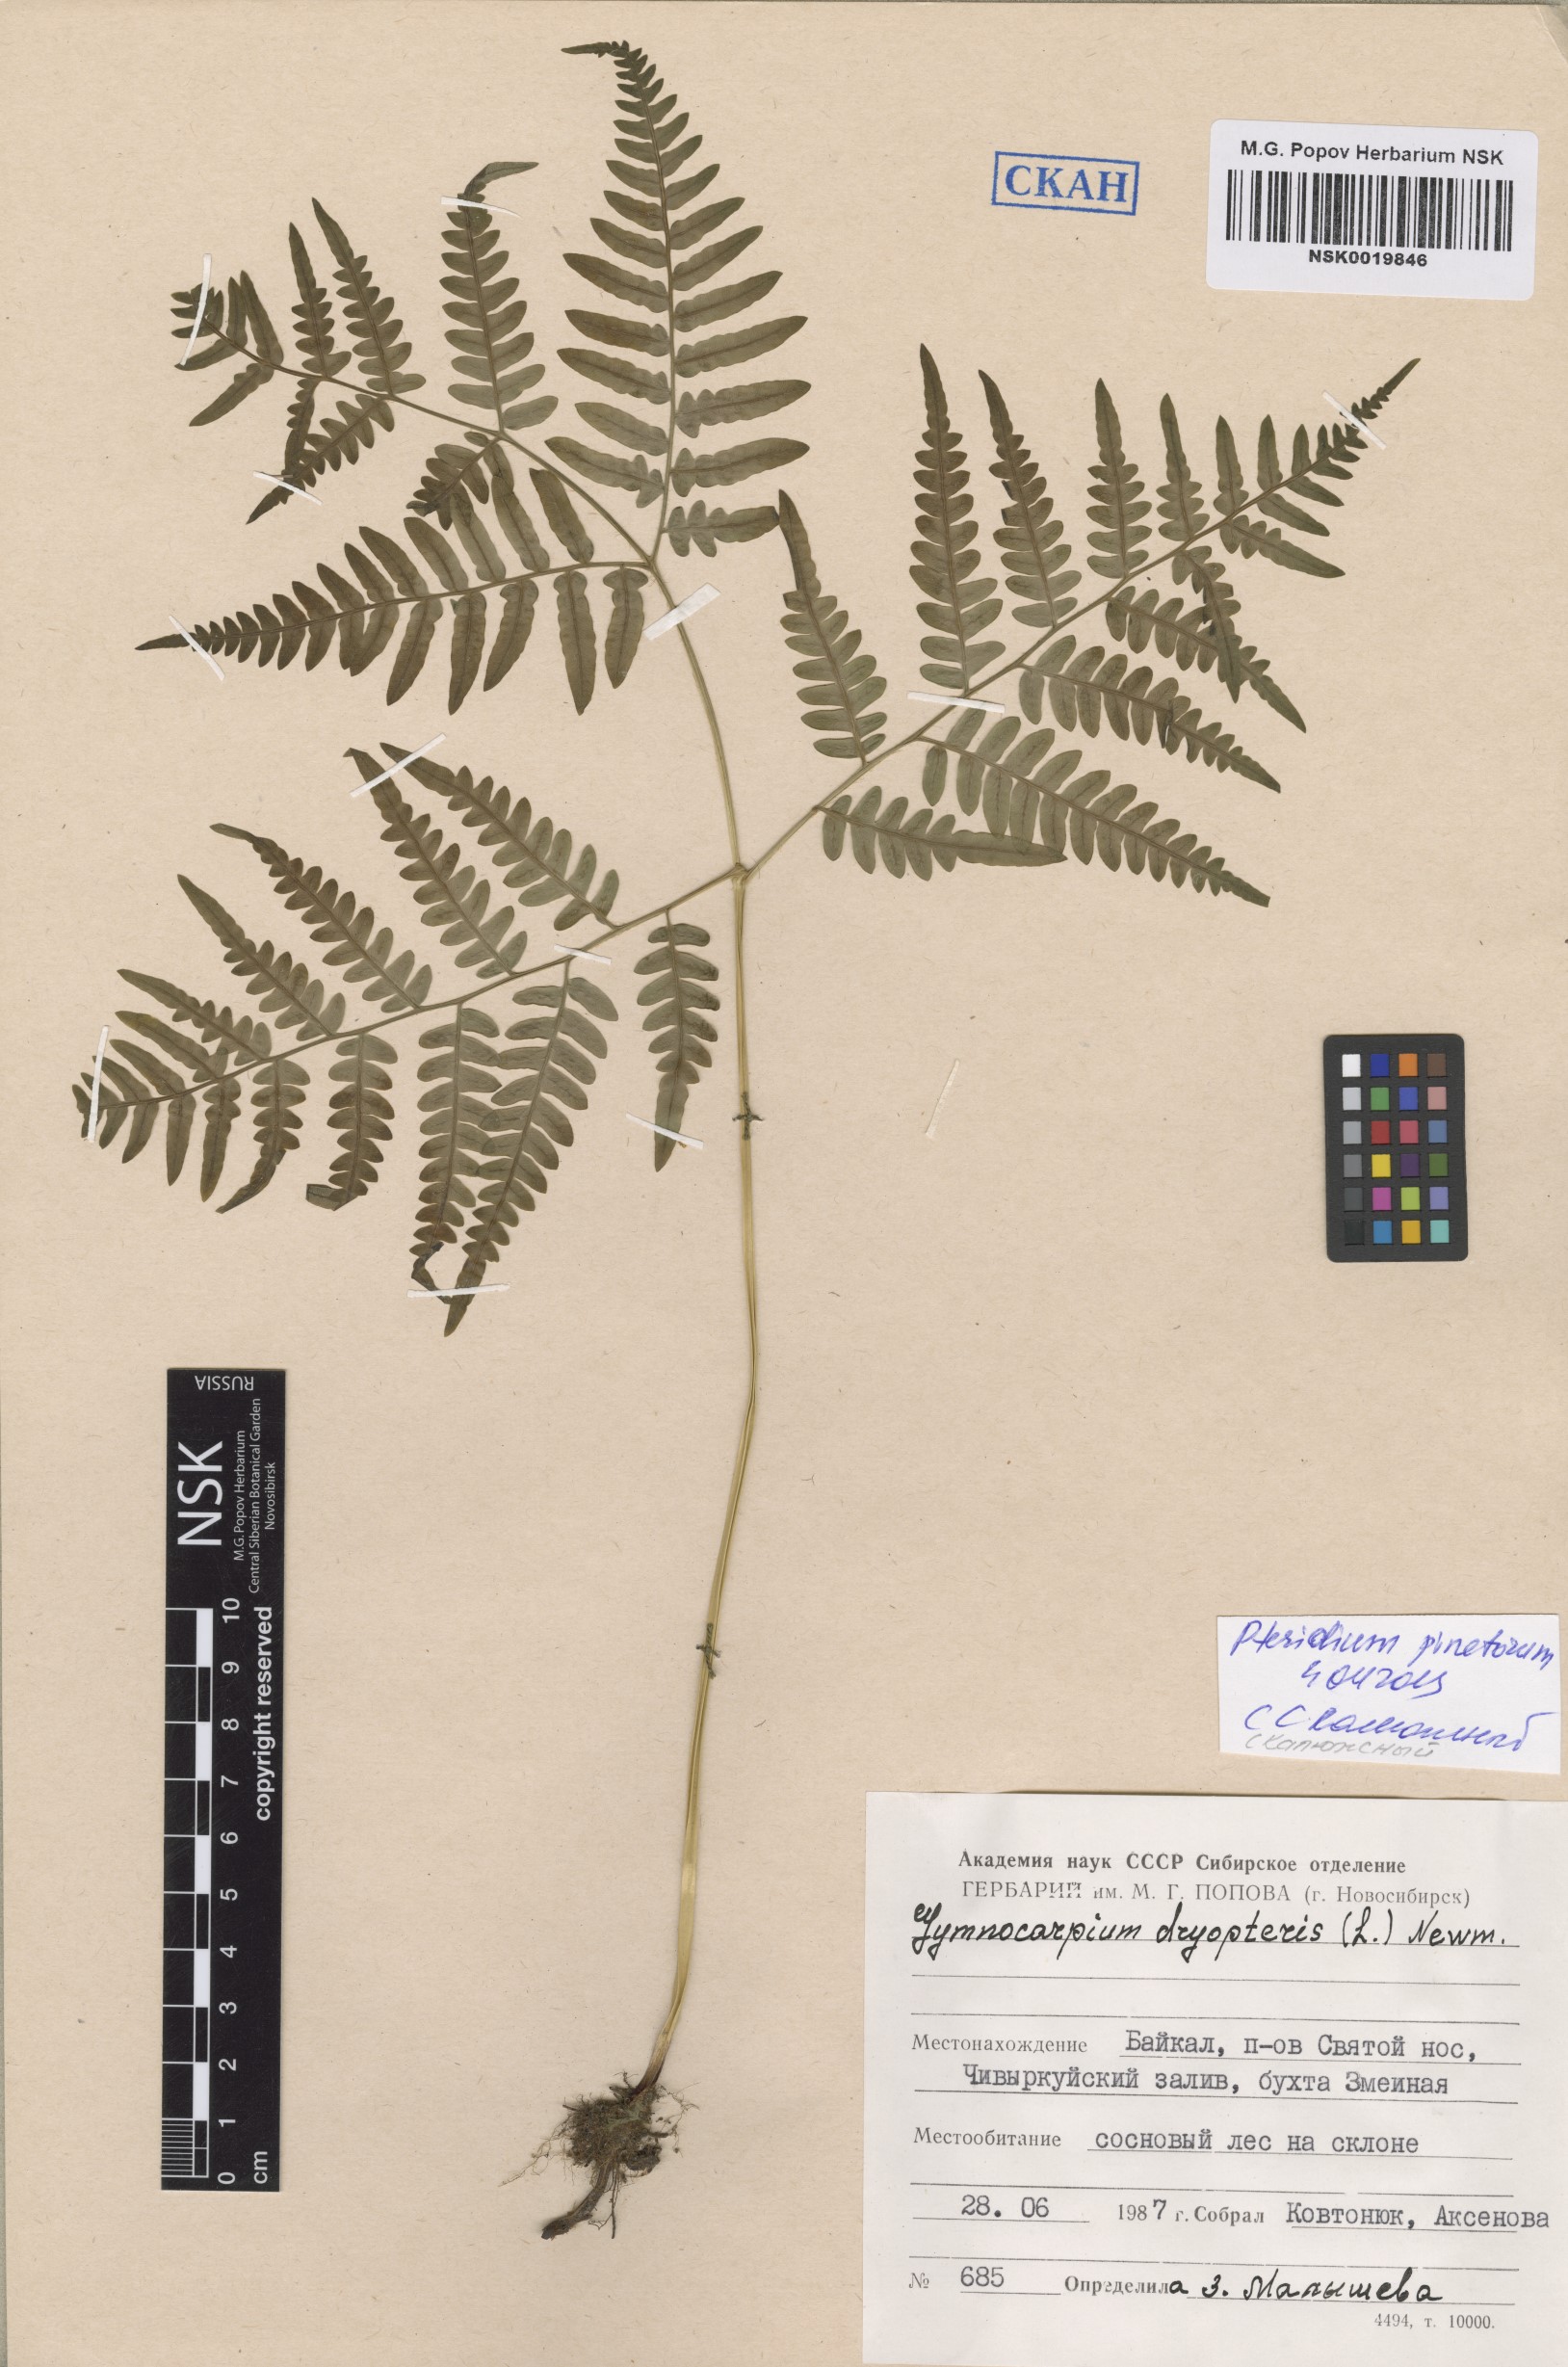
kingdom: Plantae
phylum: Tracheophyta
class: Polypodiopsida
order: Polypodiales
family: Dennstaedtiaceae
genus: Pteridium
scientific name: Pteridium aquilinum
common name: Bracken
